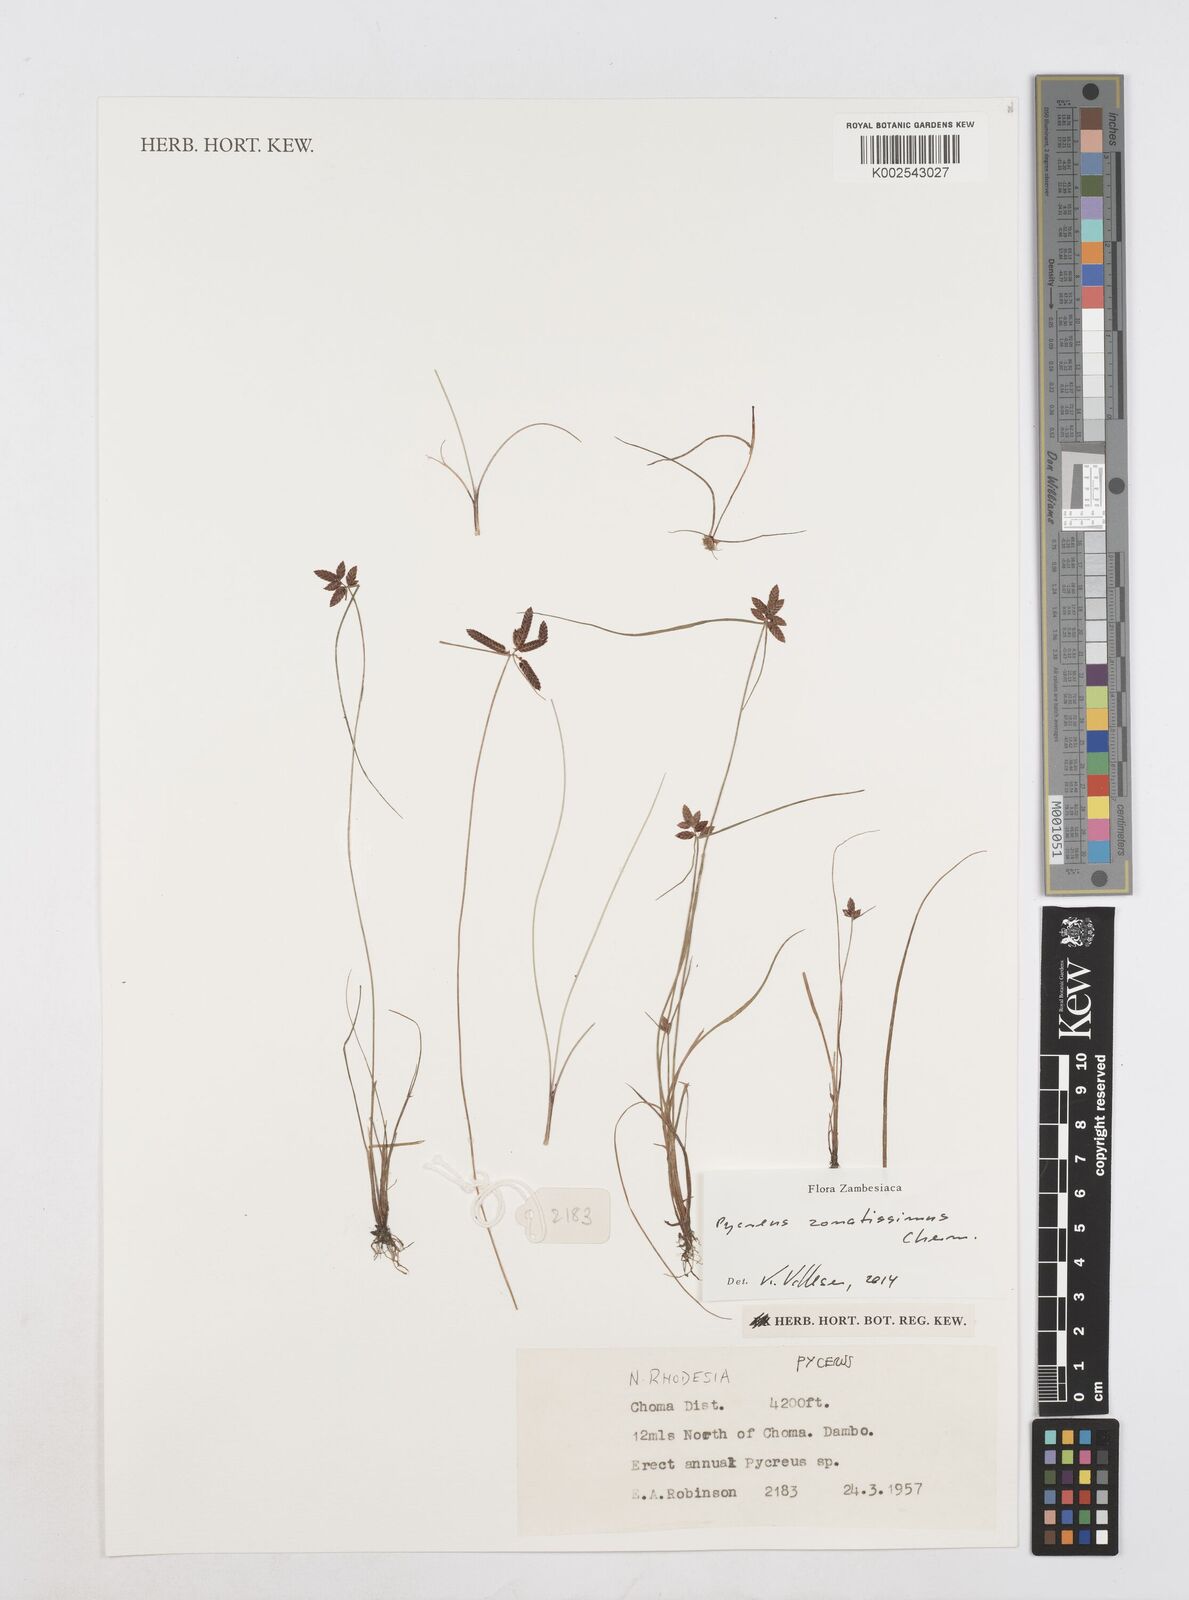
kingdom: Plantae
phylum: Tracheophyta
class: Liliopsida
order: Poales
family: Cyperaceae
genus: Cyperus
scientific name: Cyperus zonatissimus
